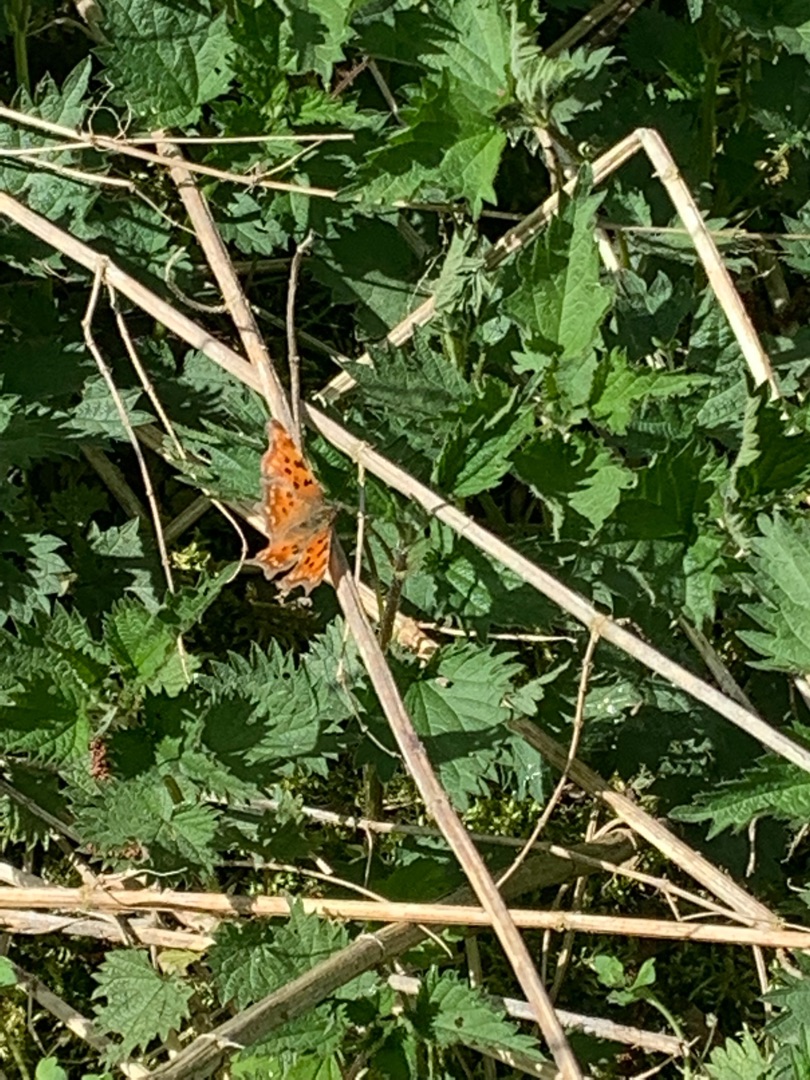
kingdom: Animalia
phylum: Arthropoda
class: Insecta
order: Lepidoptera
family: Nymphalidae
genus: Polygonia
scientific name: Polygonia c-album
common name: Det hvide C
